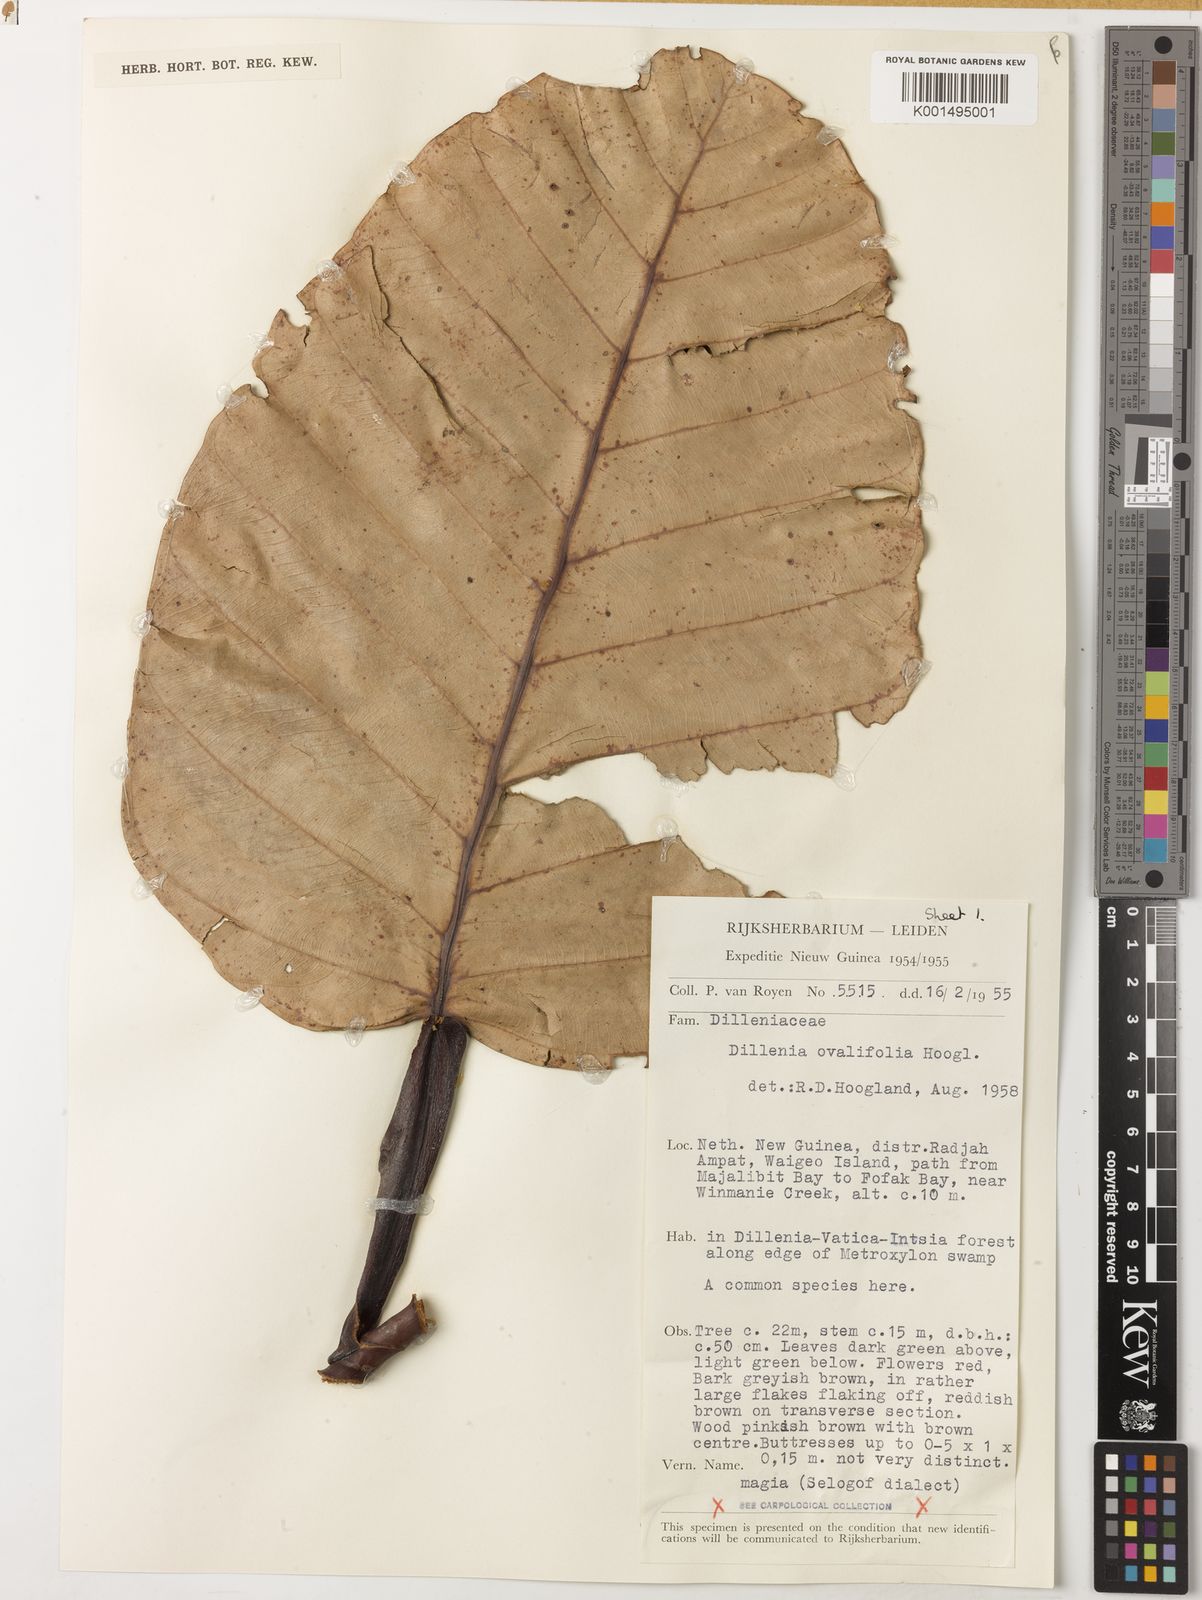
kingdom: Plantae
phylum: Tracheophyta
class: Magnoliopsida
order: Dilleniales
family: Dilleniaceae
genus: Dillenia
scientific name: Dillenia ovalifolia
